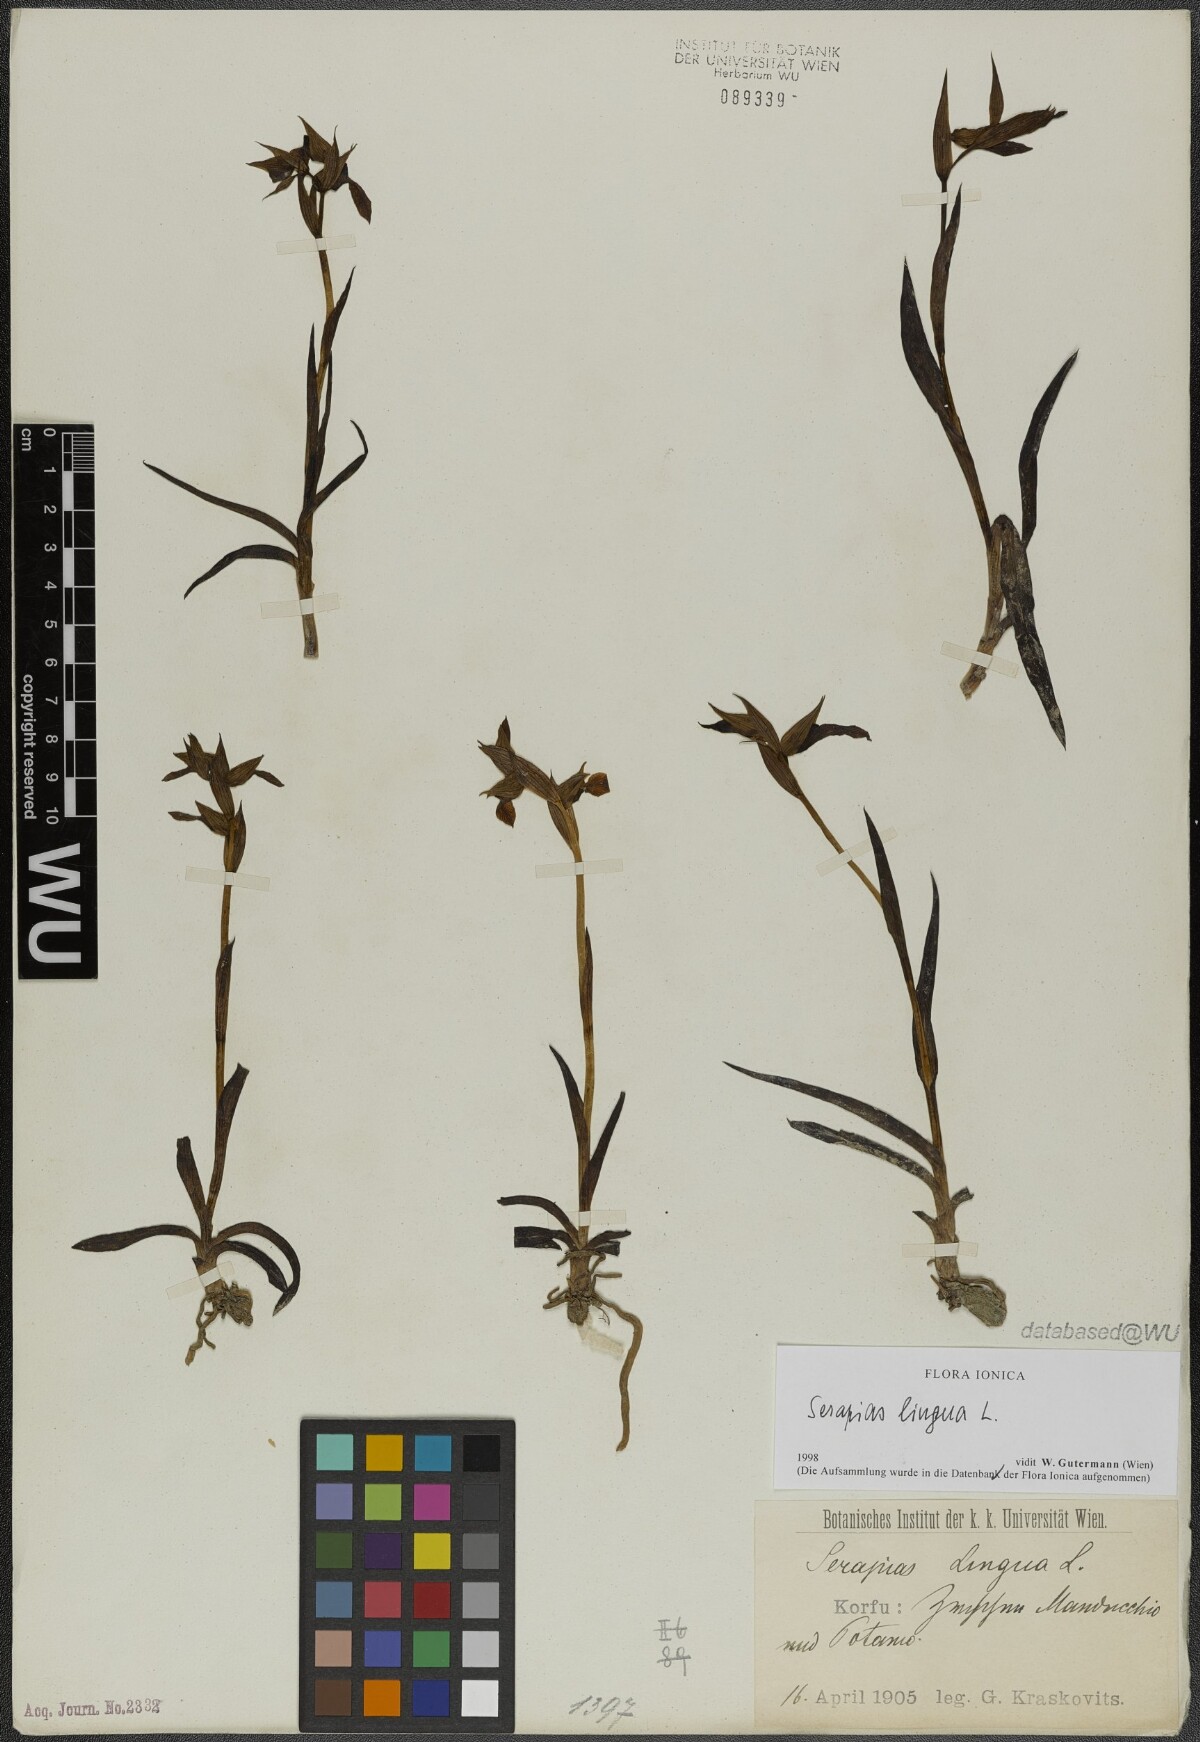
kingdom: Plantae
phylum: Tracheophyta
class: Liliopsida
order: Asparagales
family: Orchidaceae
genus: Serapias
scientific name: Serapias lingua
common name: Tongue-orchid
